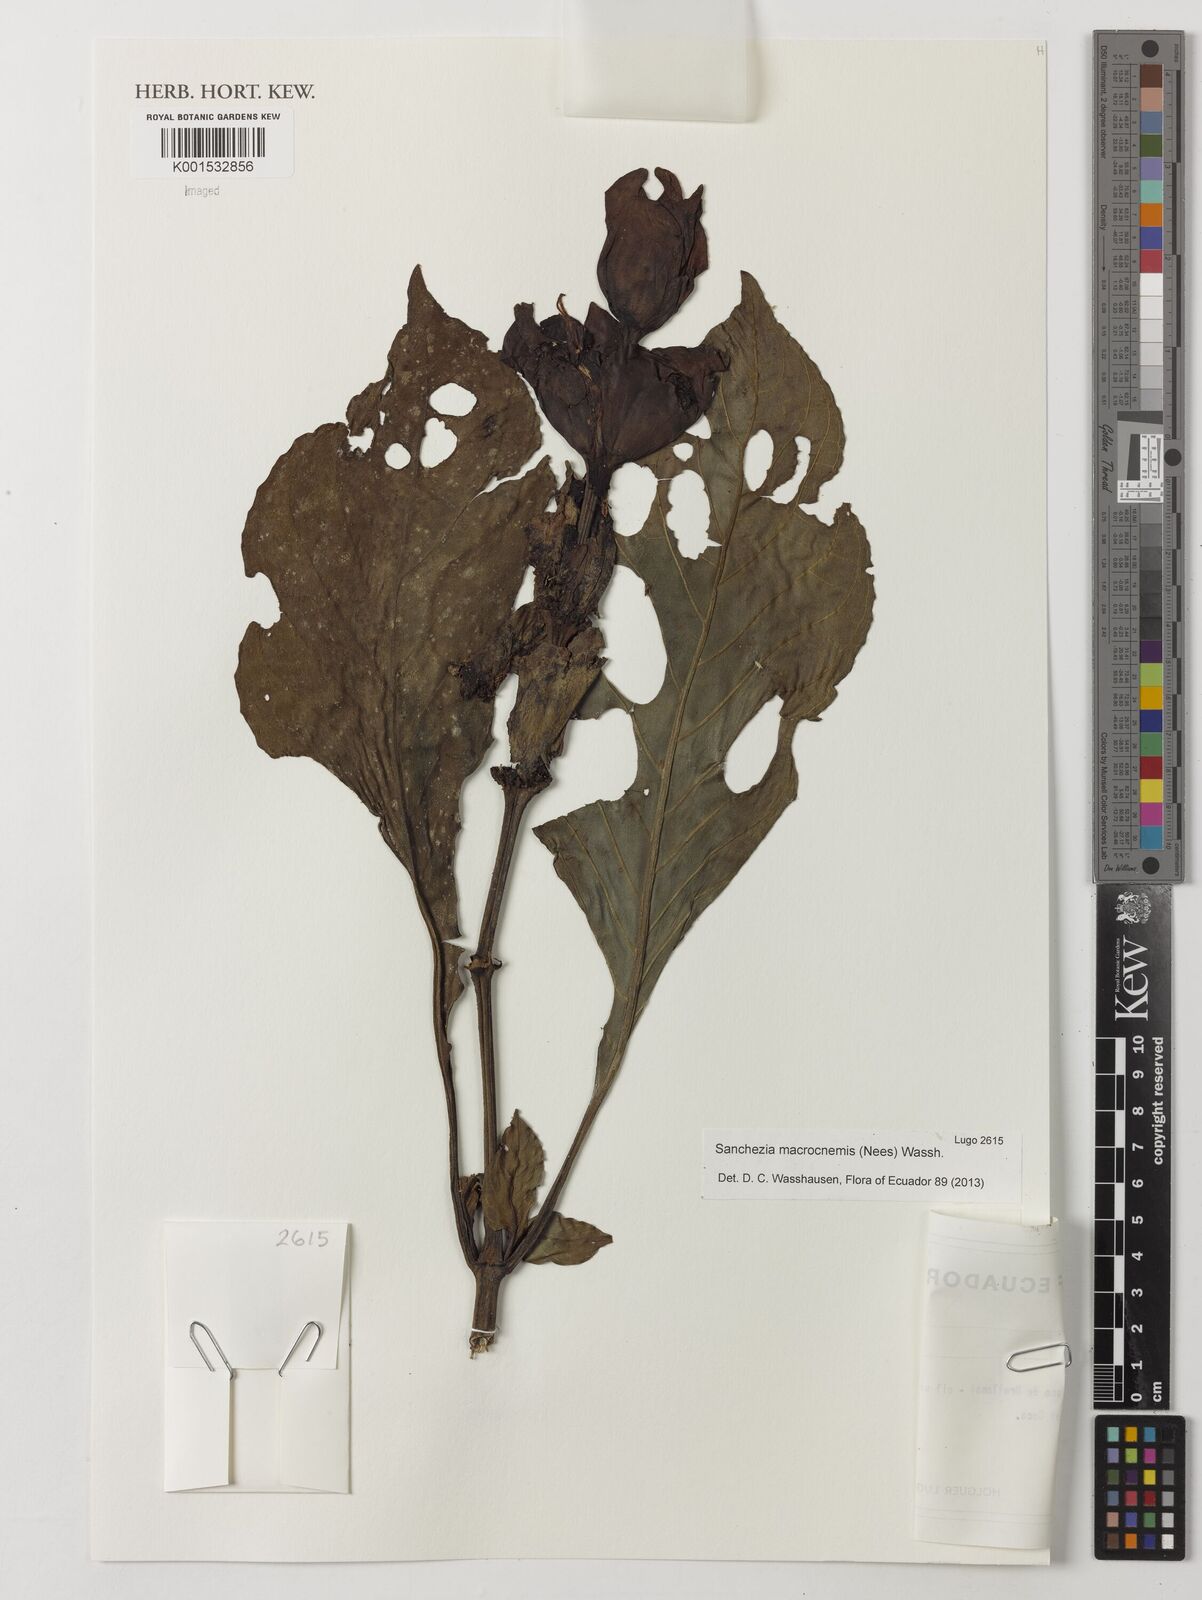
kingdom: Plantae
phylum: Tracheophyta
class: Magnoliopsida
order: Lamiales
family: Acanthaceae
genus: Sanchezia
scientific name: Sanchezia macrocnemis
